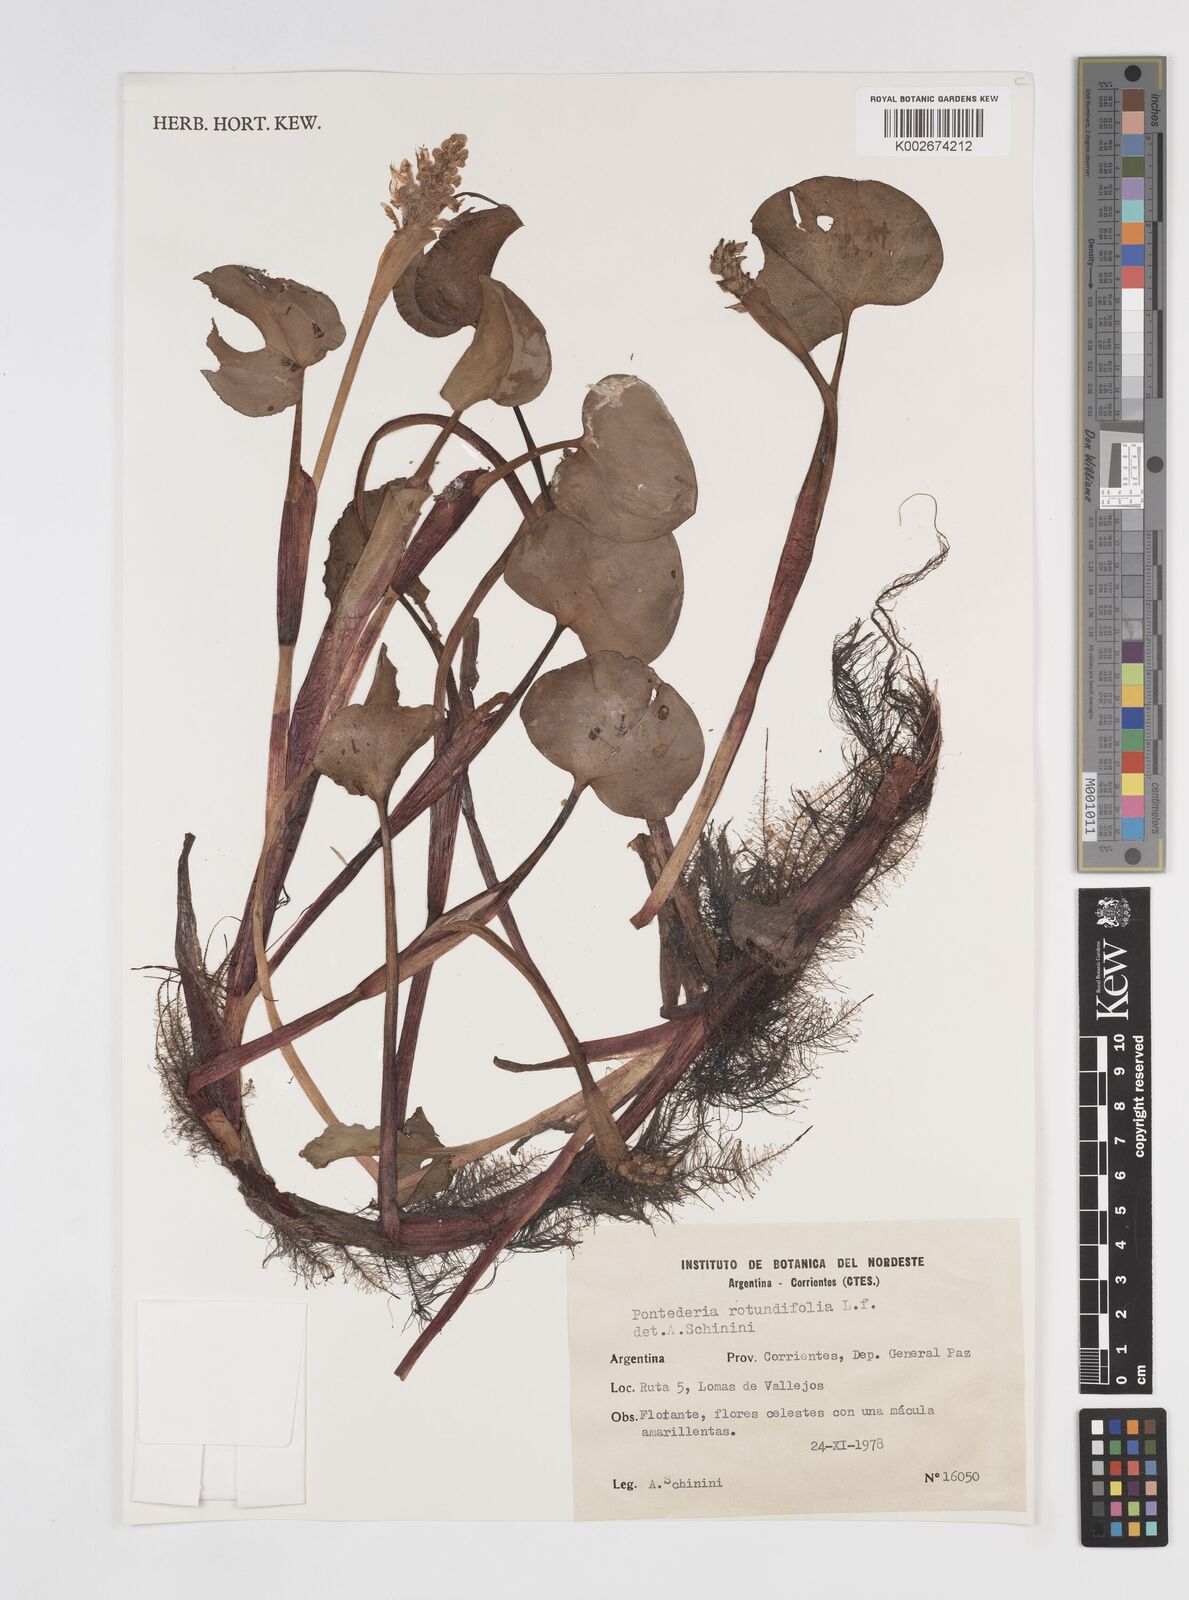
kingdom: Plantae
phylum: Tracheophyta
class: Liliopsida
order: Commelinales
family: Pontederiaceae
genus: Pontederia
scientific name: Pontederia rotundifolia
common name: Tropical pickerel-weed
